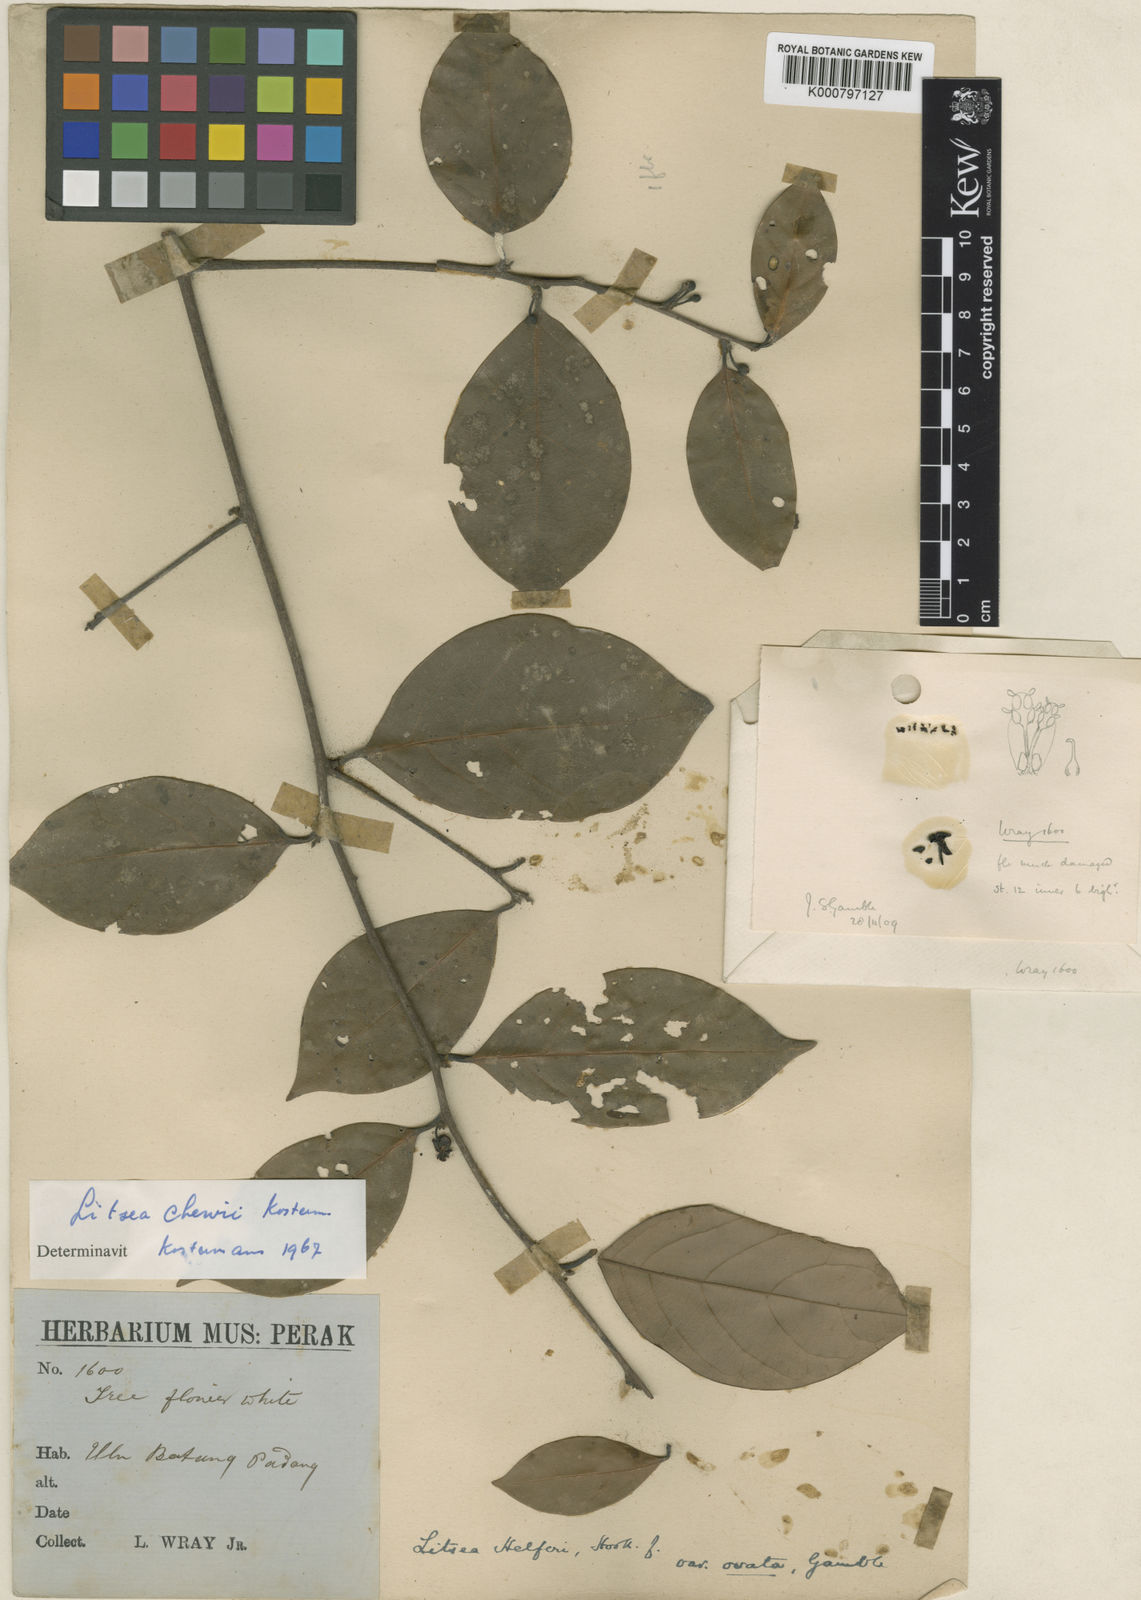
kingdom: Plantae
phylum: Tracheophyta
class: Magnoliopsida
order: Laurales
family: Lauraceae
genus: Litsea
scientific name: Litsea chewii
